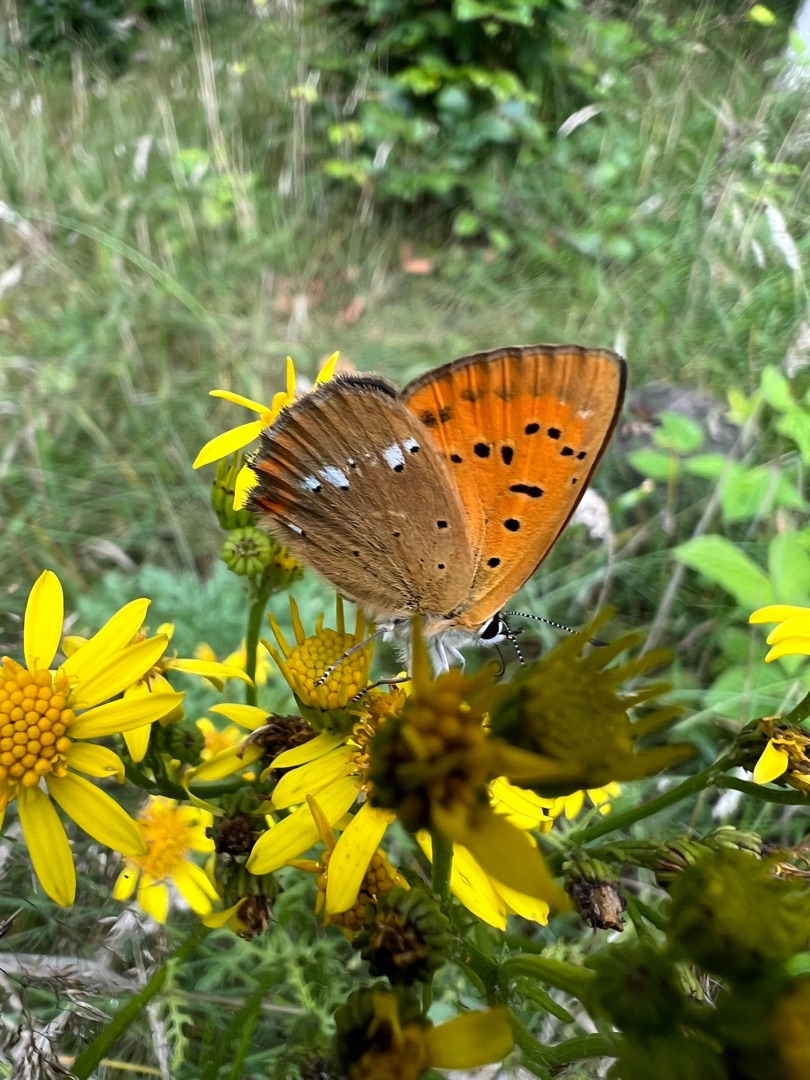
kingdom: Animalia
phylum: Arthropoda
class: Insecta
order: Lepidoptera
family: Lycaenidae
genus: Lycaena
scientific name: Lycaena virgaureae
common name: Dukatsommerfugl
